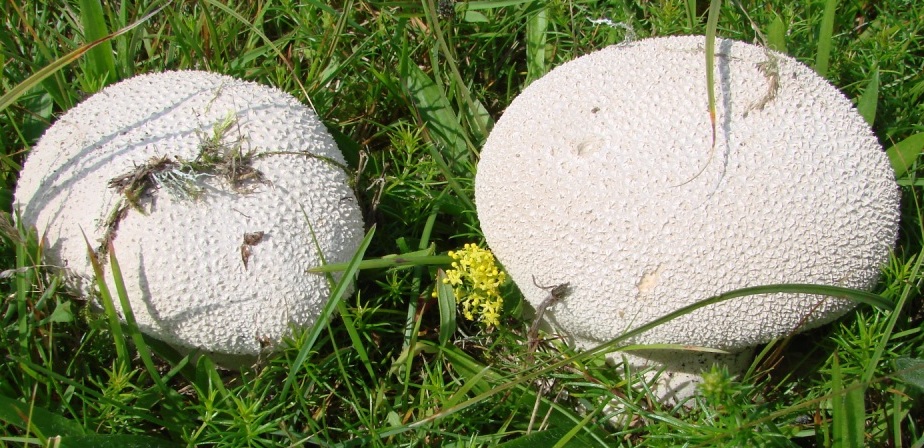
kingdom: Fungi
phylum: Basidiomycota
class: Agaricomycetes
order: Agaricales
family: Lycoperdaceae
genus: Bovistella
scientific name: Bovistella utriformis
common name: skællet støvbold
